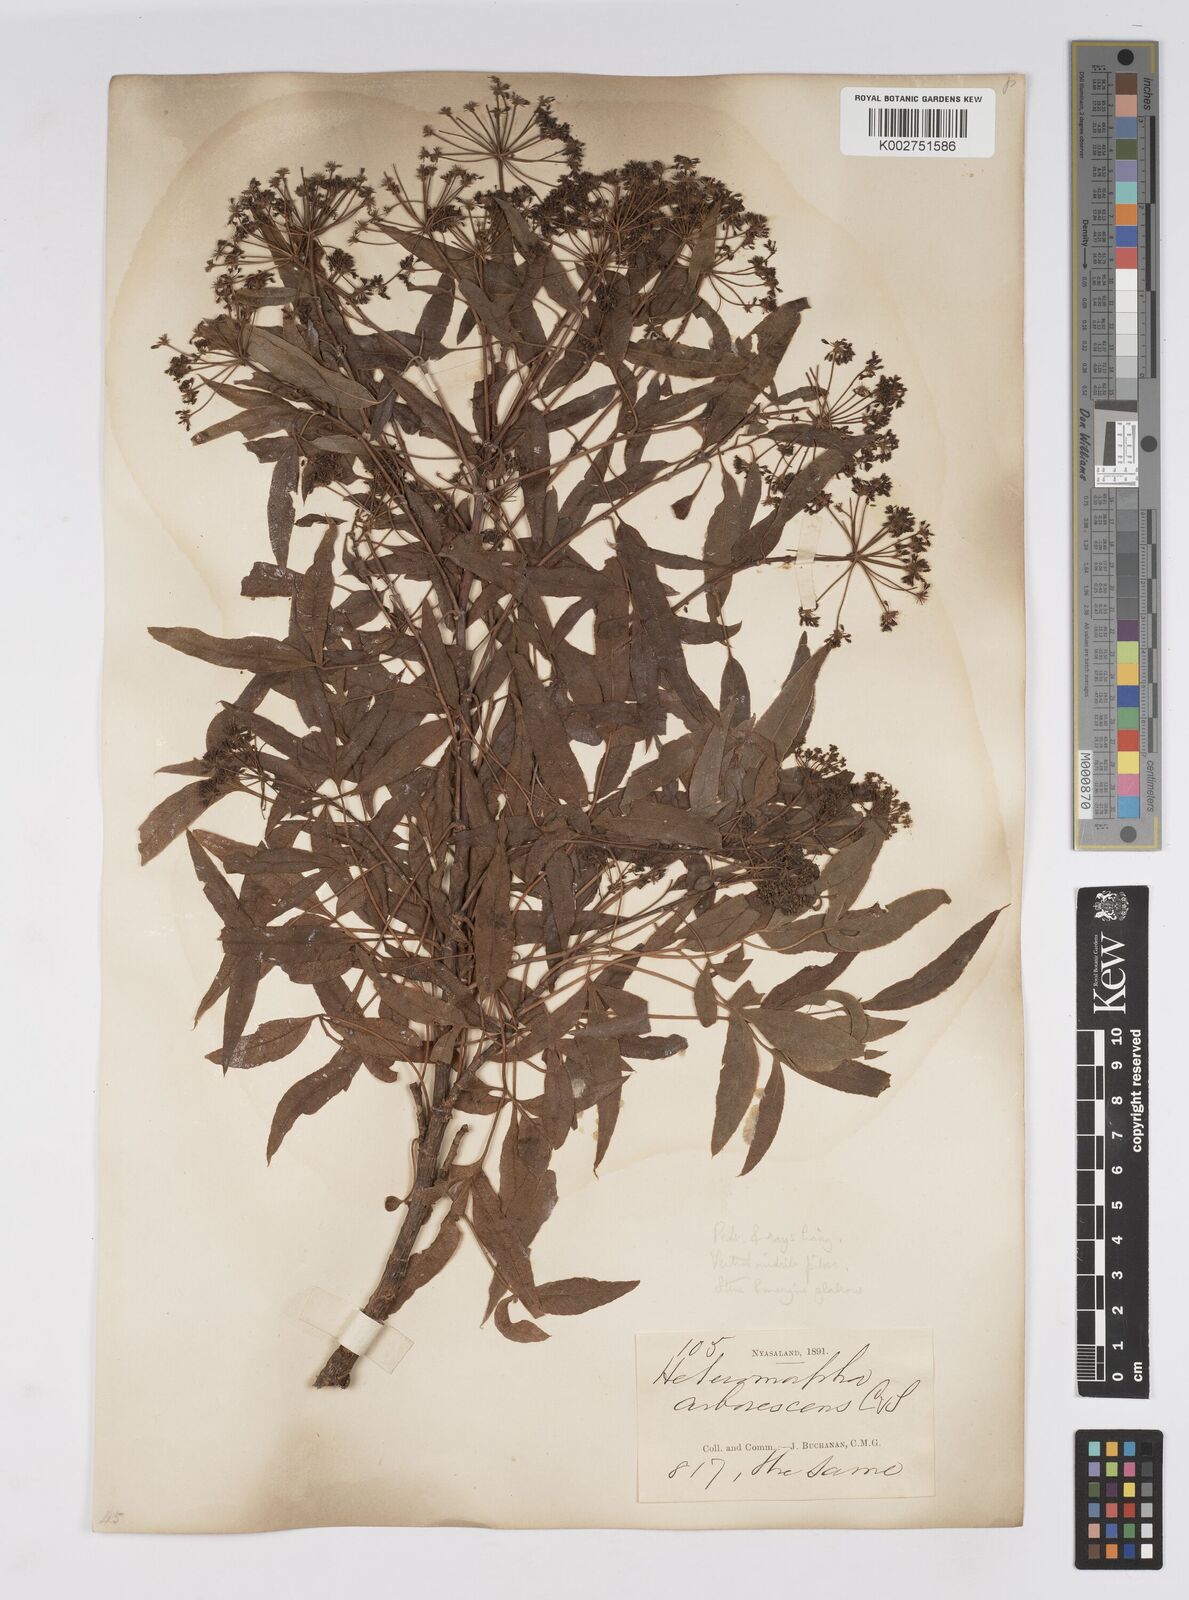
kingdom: Plantae
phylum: Tracheophyta
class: Magnoliopsida
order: Apiales
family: Apiaceae
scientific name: Apiaceae
